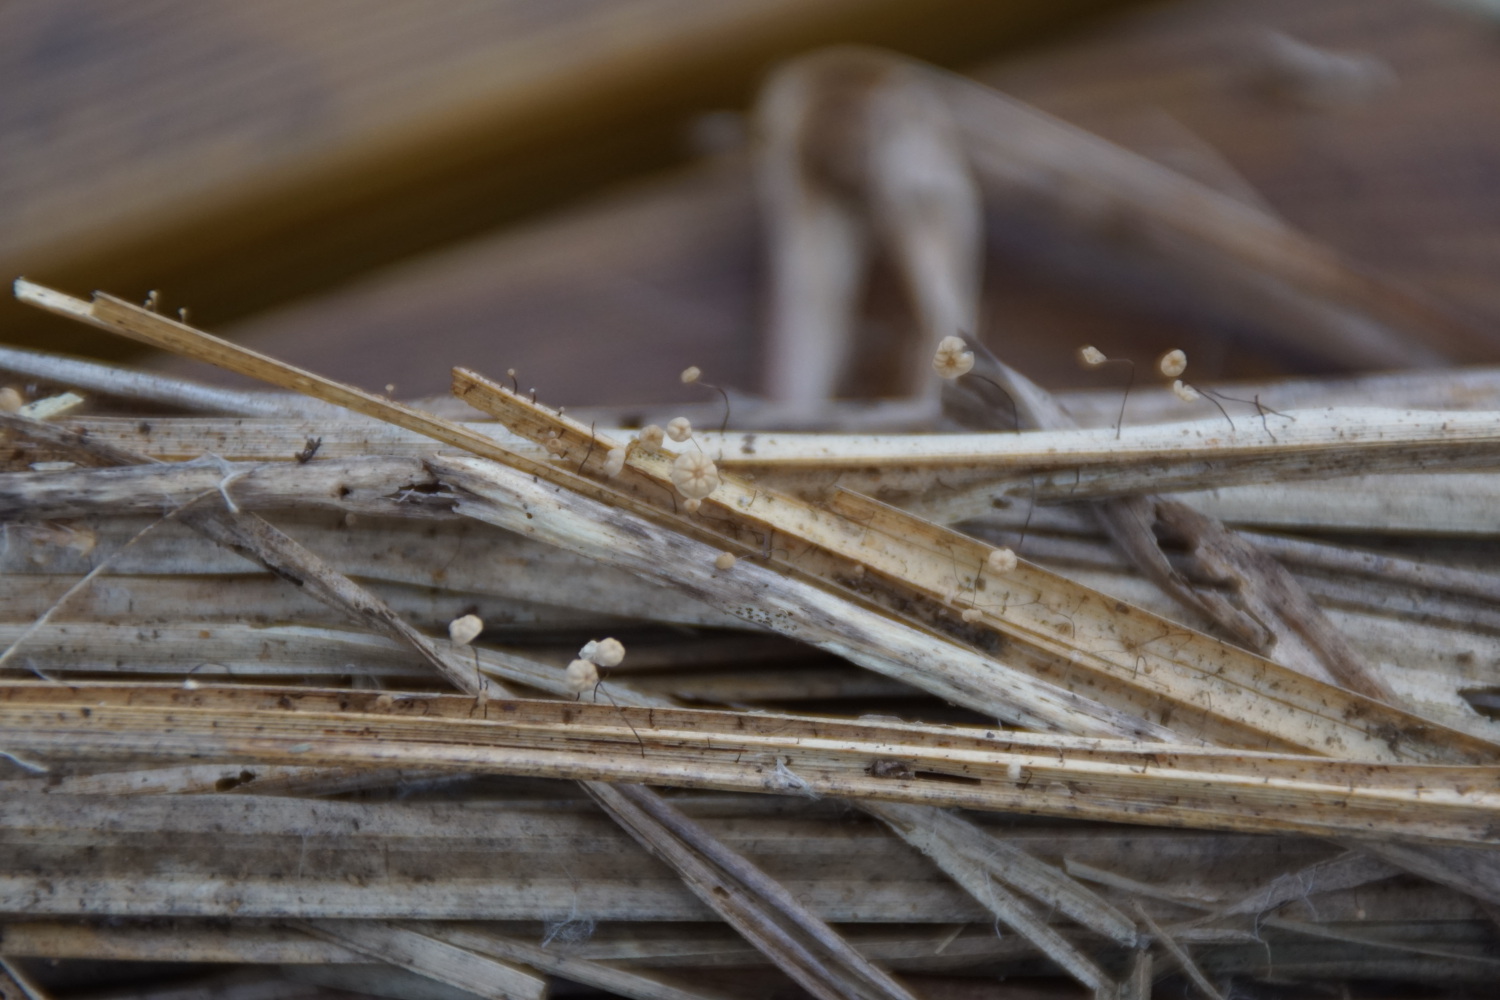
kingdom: Fungi
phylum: Basidiomycota
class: Agaricomycetes
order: Agaricales
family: Marasmiaceae
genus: Marasmius
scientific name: Marasmius limosus
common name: kær-bruskhat
